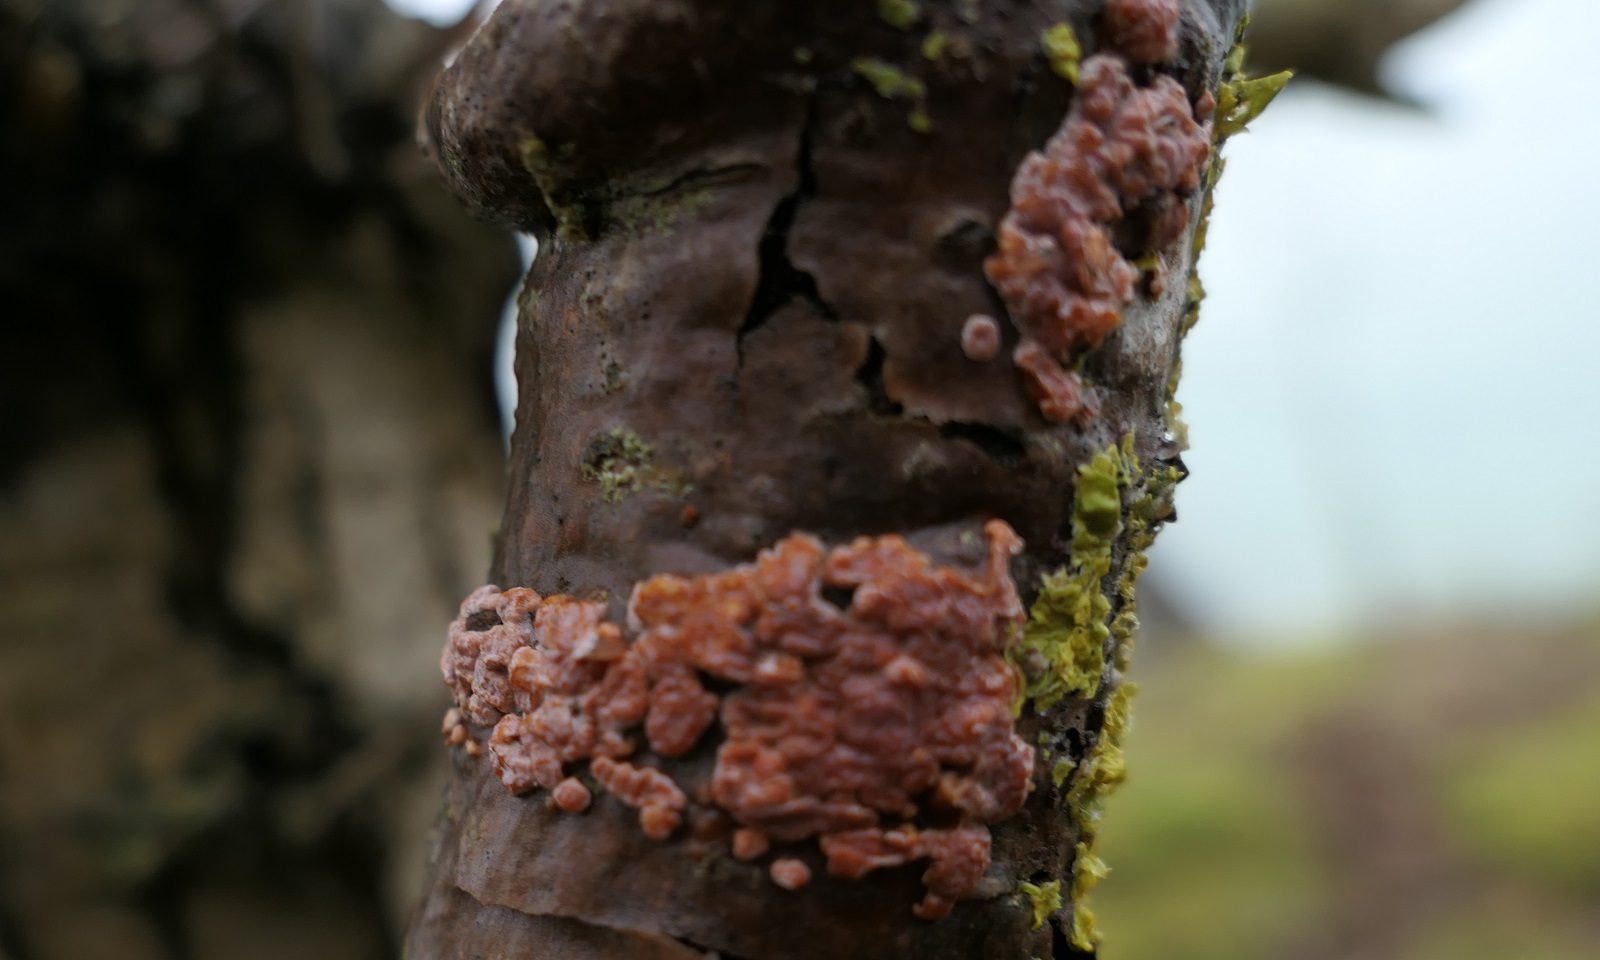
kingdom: Fungi
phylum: Basidiomycota
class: Agaricomycetes
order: Russulales
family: Peniophoraceae
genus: Peniophora
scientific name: Peniophora polygonia
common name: polygon-voksskind
